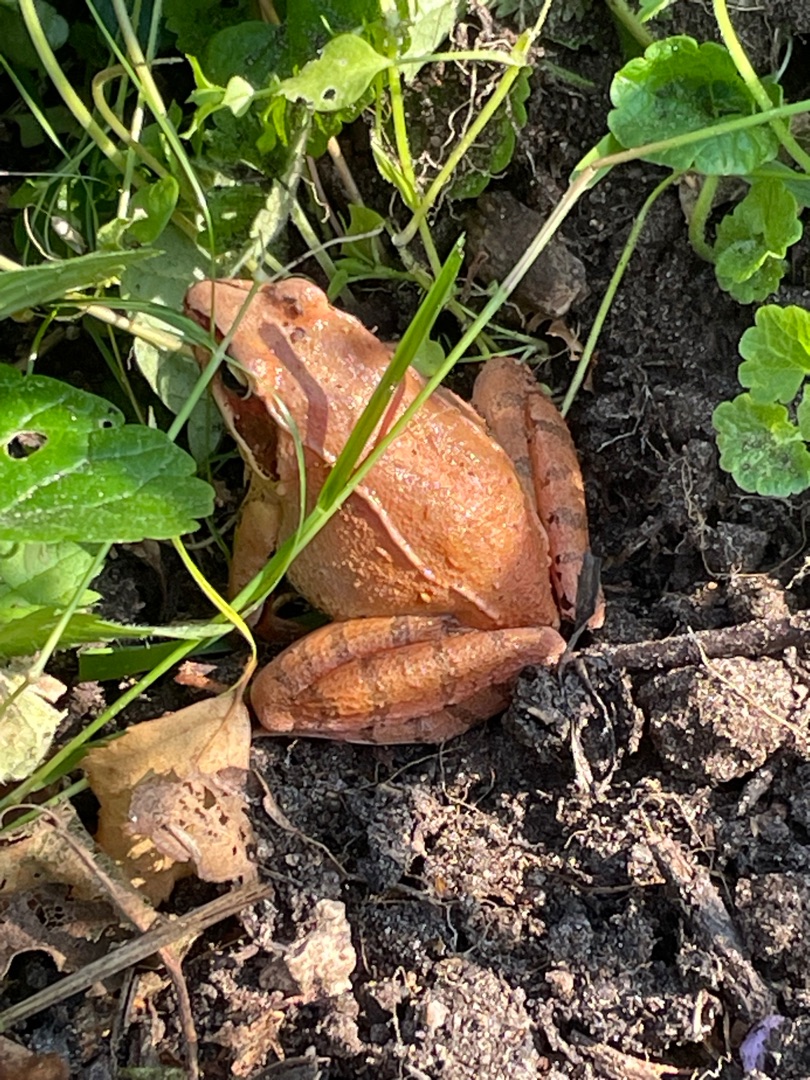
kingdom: Animalia
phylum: Chordata
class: Amphibia
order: Anura
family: Ranidae
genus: Rana
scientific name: Rana dalmatina
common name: Springfrø
